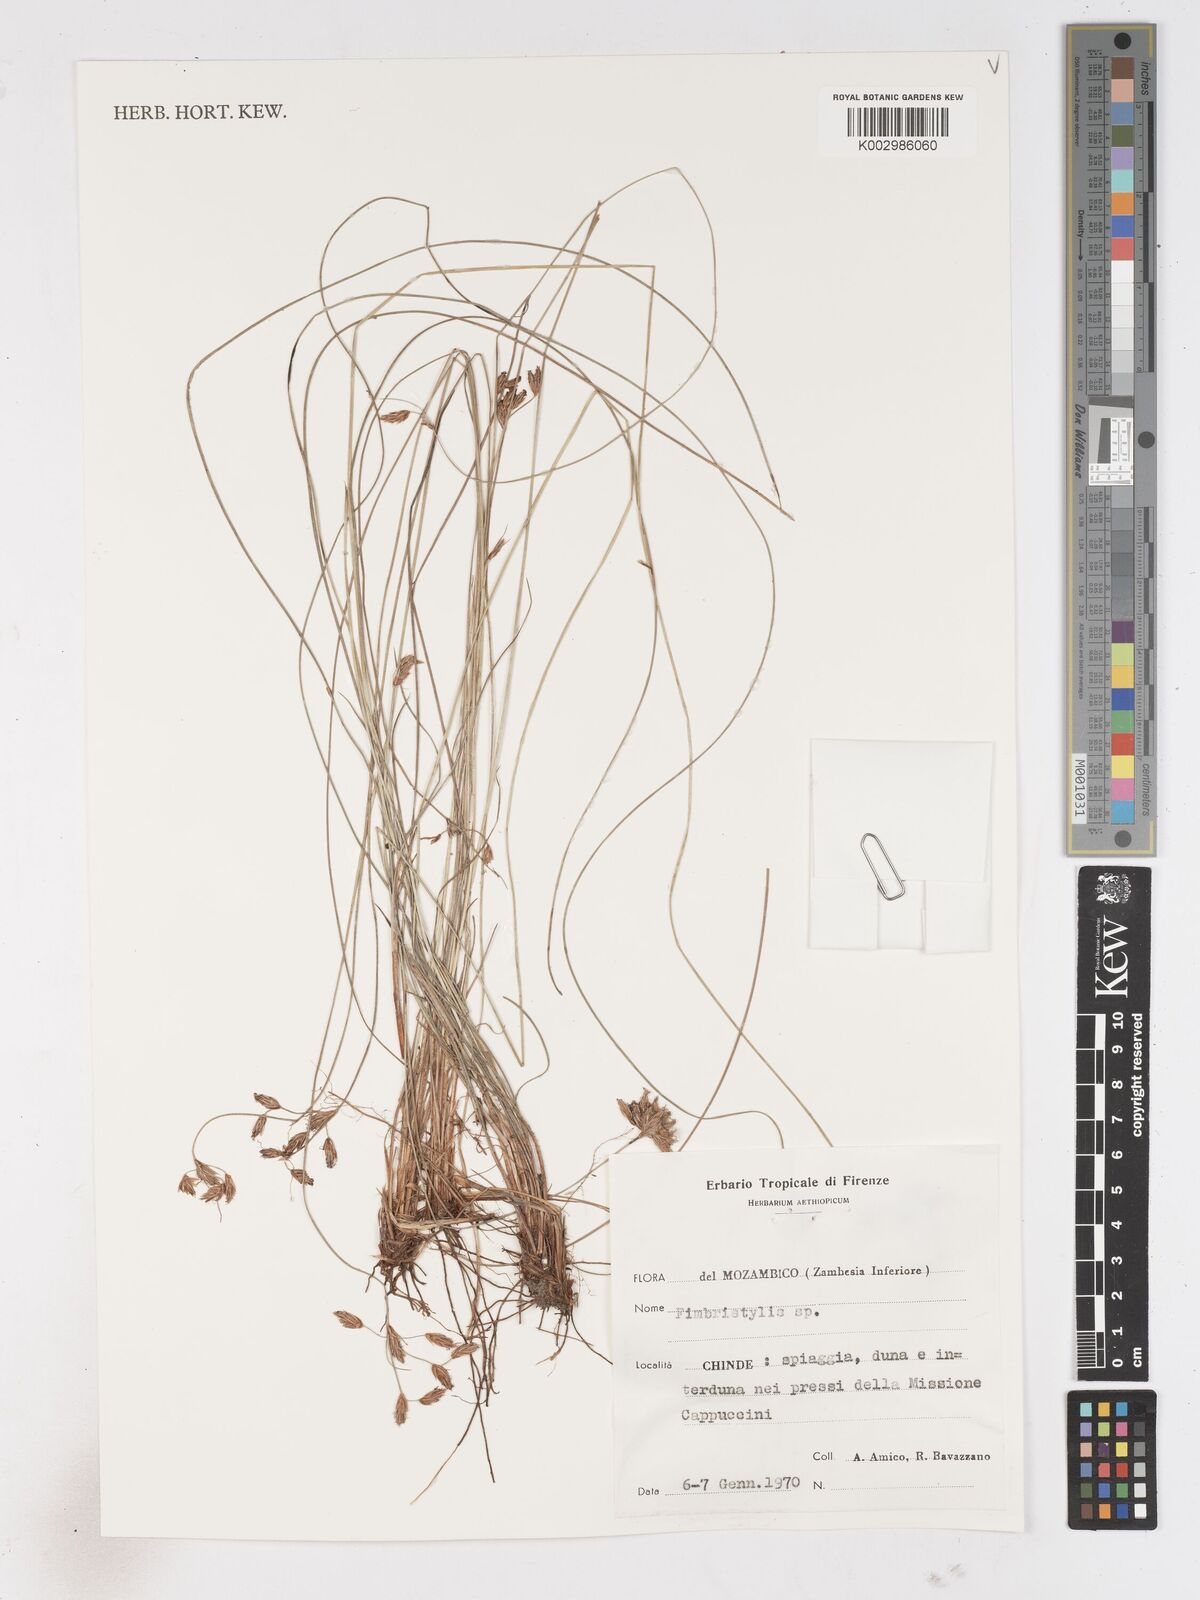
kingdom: Plantae
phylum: Tracheophyta
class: Liliopsida
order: Poales
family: Cyperaceae
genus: Fimbristylis
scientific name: Fimbristylis
